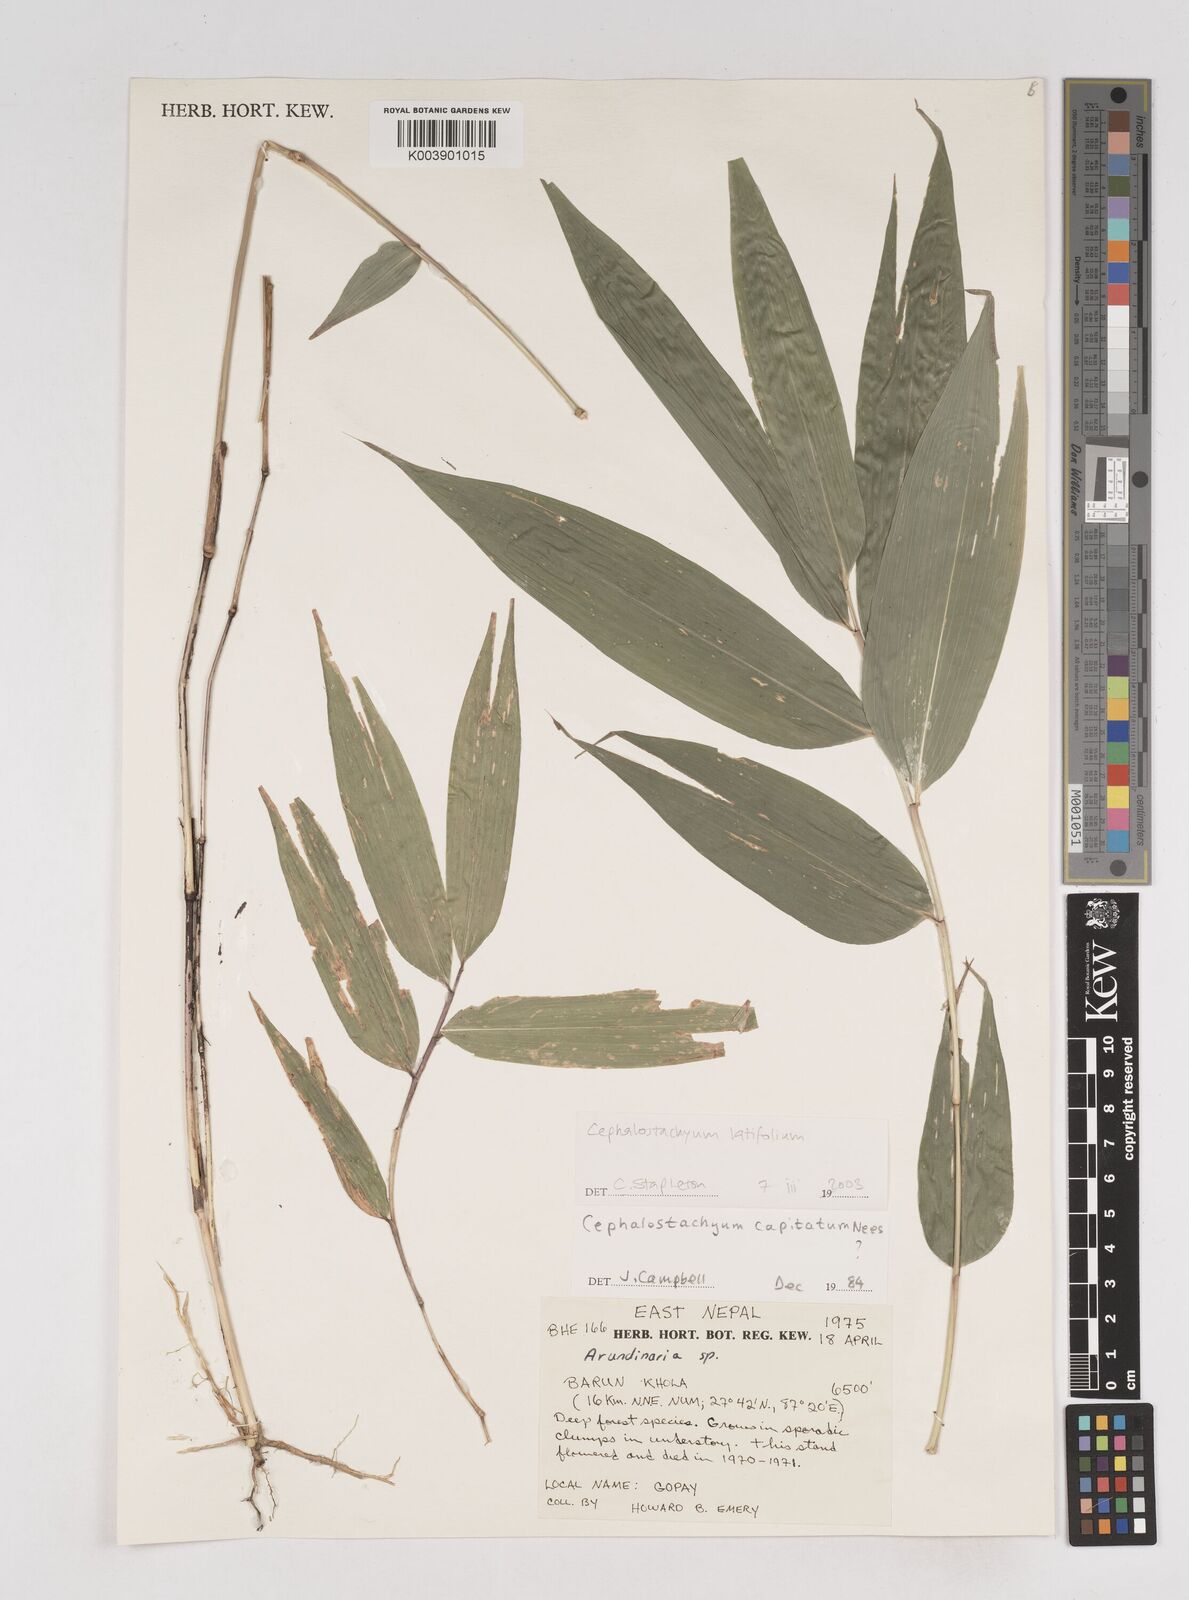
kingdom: Plantae
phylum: Tracheophyta
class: Liliopsida
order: Poales
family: Poaceae
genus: Cephalostachyum
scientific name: Cephalostachyum latifolium
